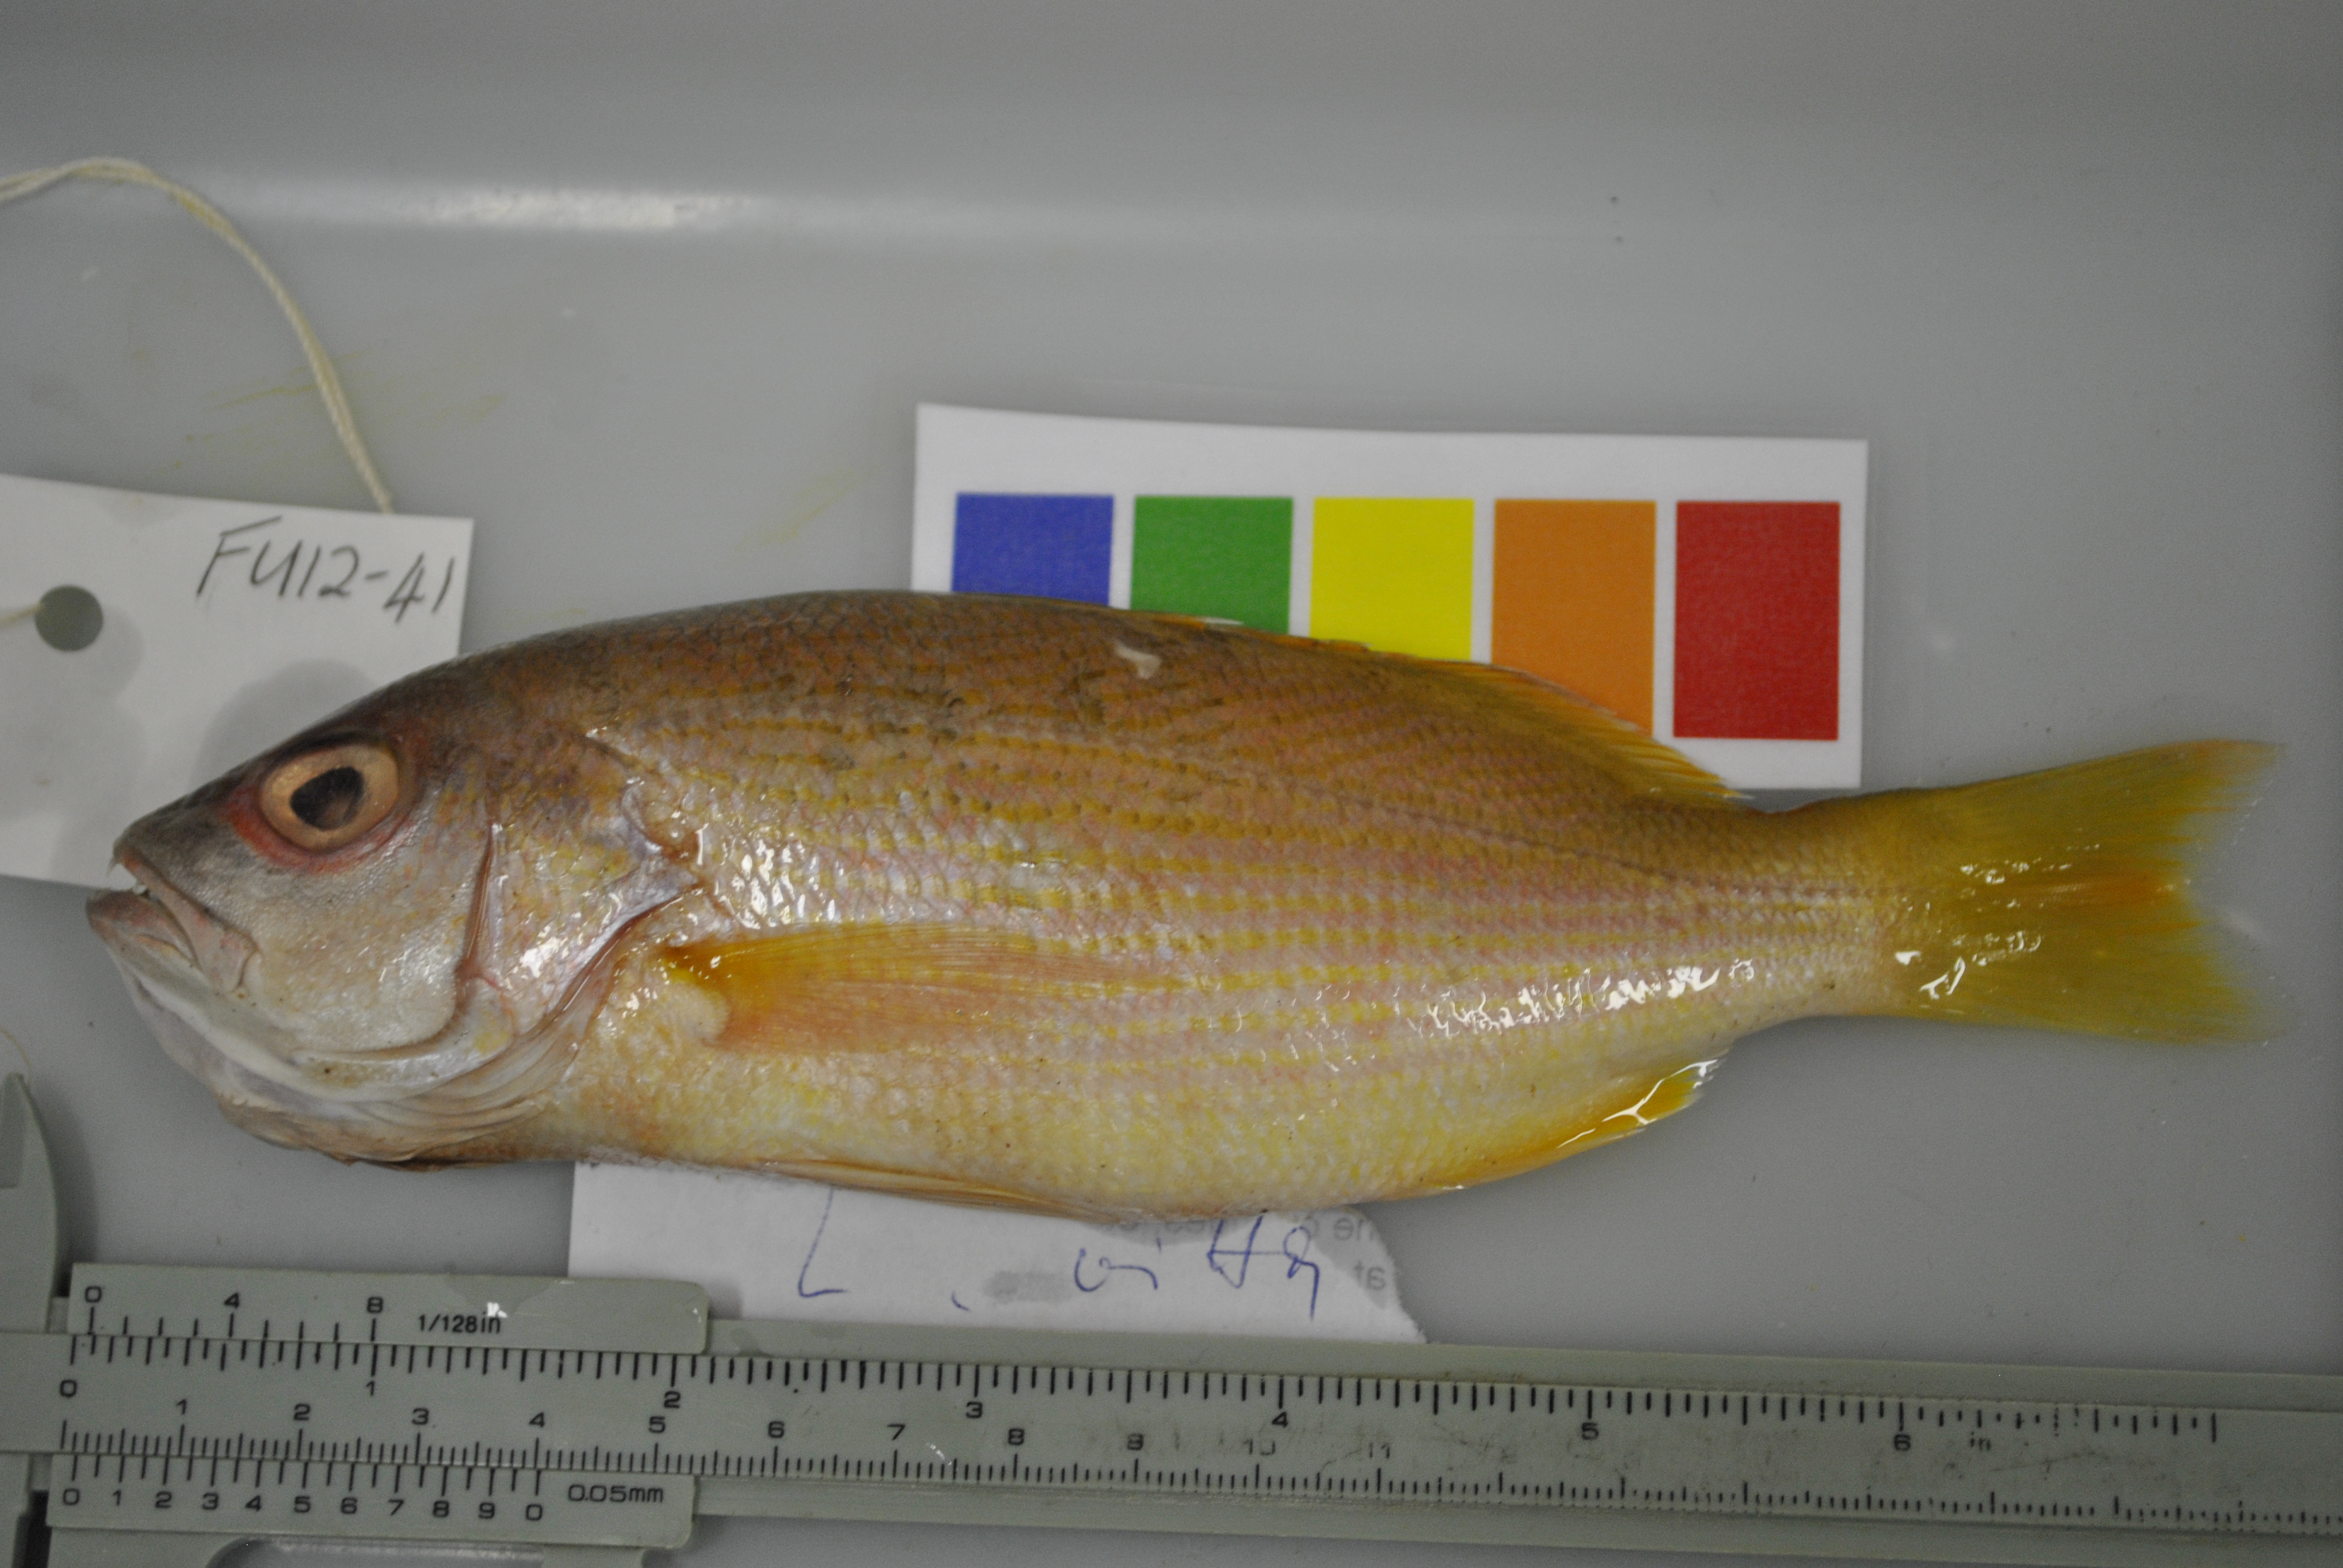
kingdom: Animalia
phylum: Chordata
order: Perciformes
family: Lutjanidae
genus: Lutjanus
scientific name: Lutjanus vitta
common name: Brownstripe red snapper
